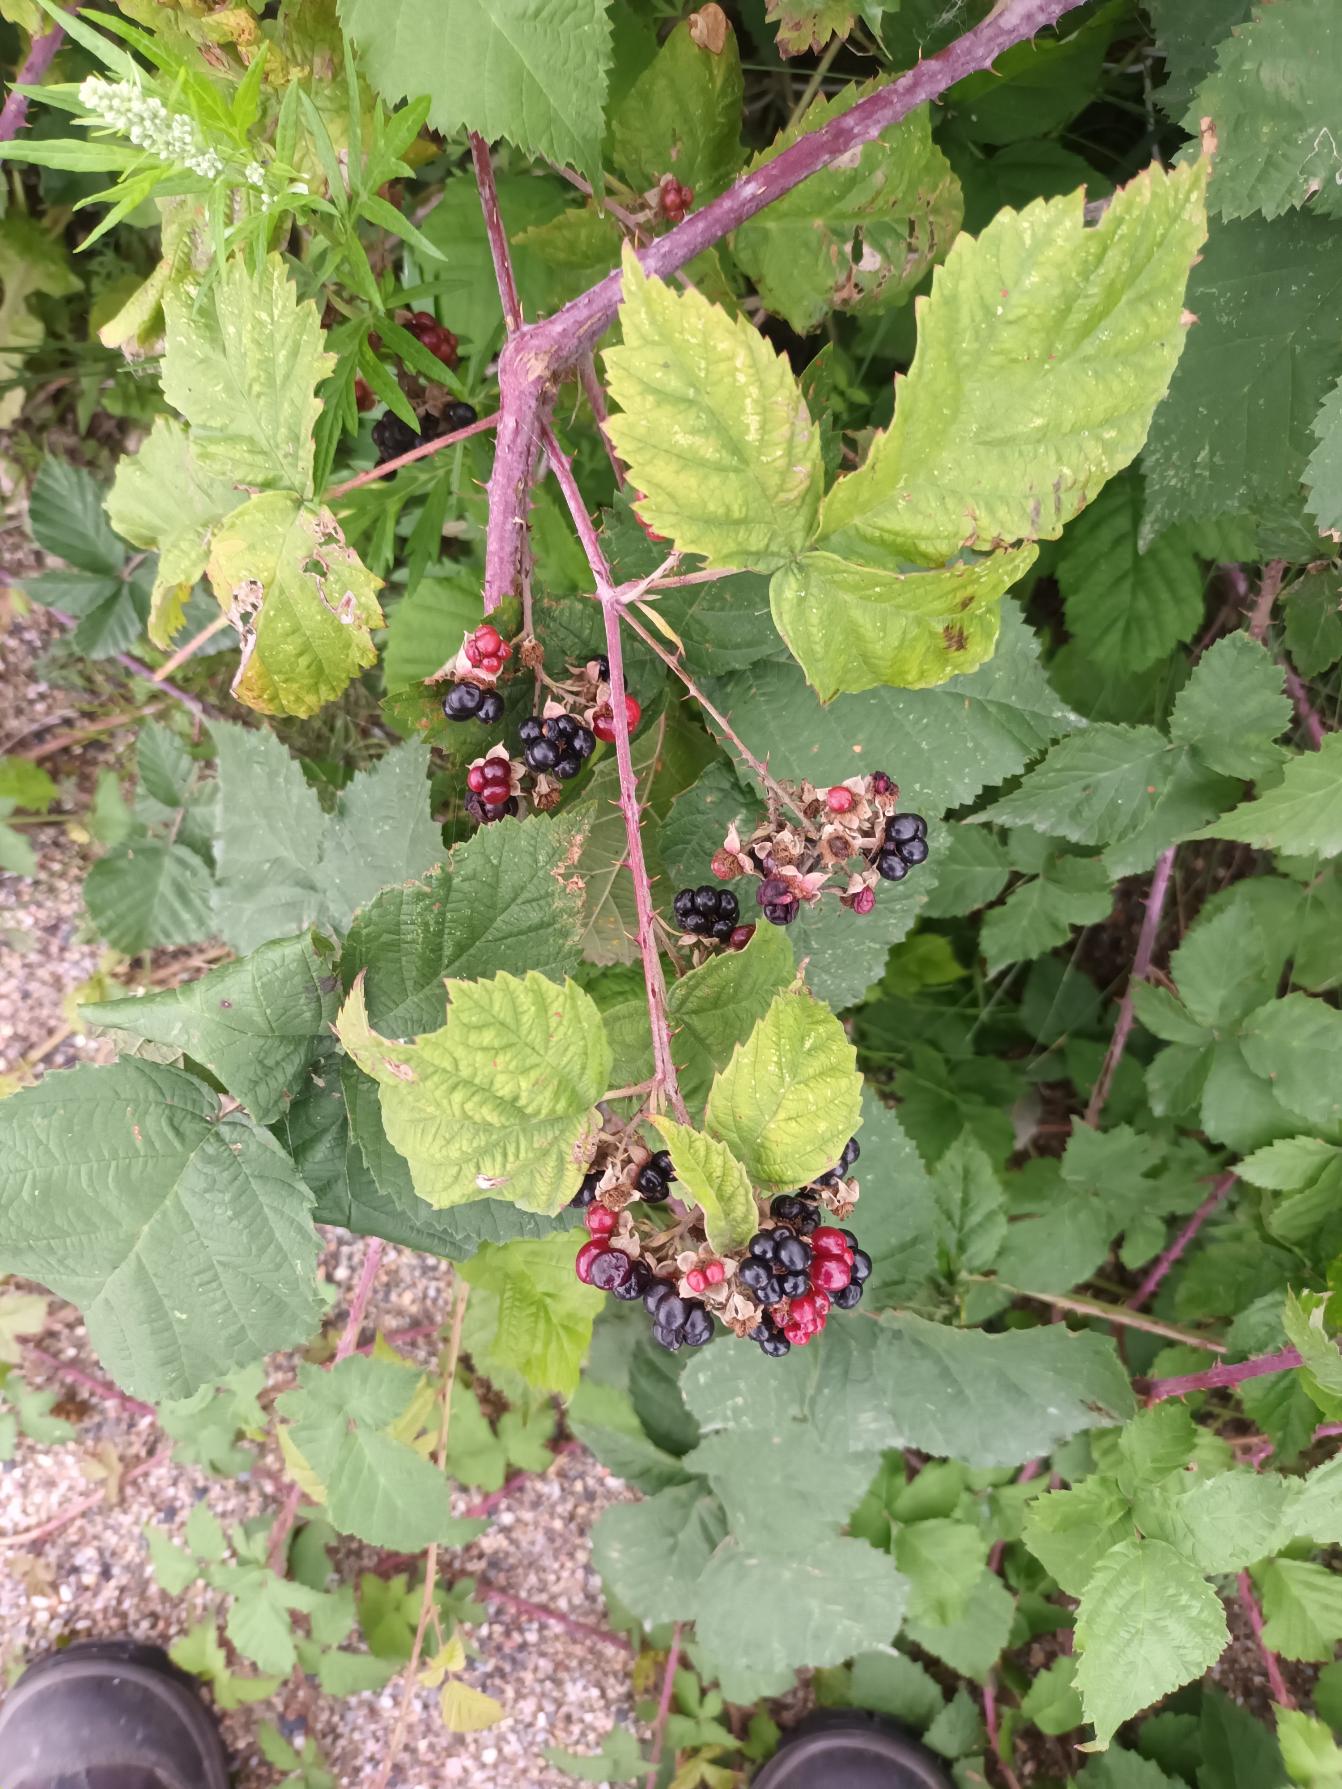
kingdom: Plantae
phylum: Tracheophyta
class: Magnoliopsida
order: Rosales
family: Rosaceae
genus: Rubus
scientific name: Rubus glauciformis
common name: Blådugget hasselbrombær
